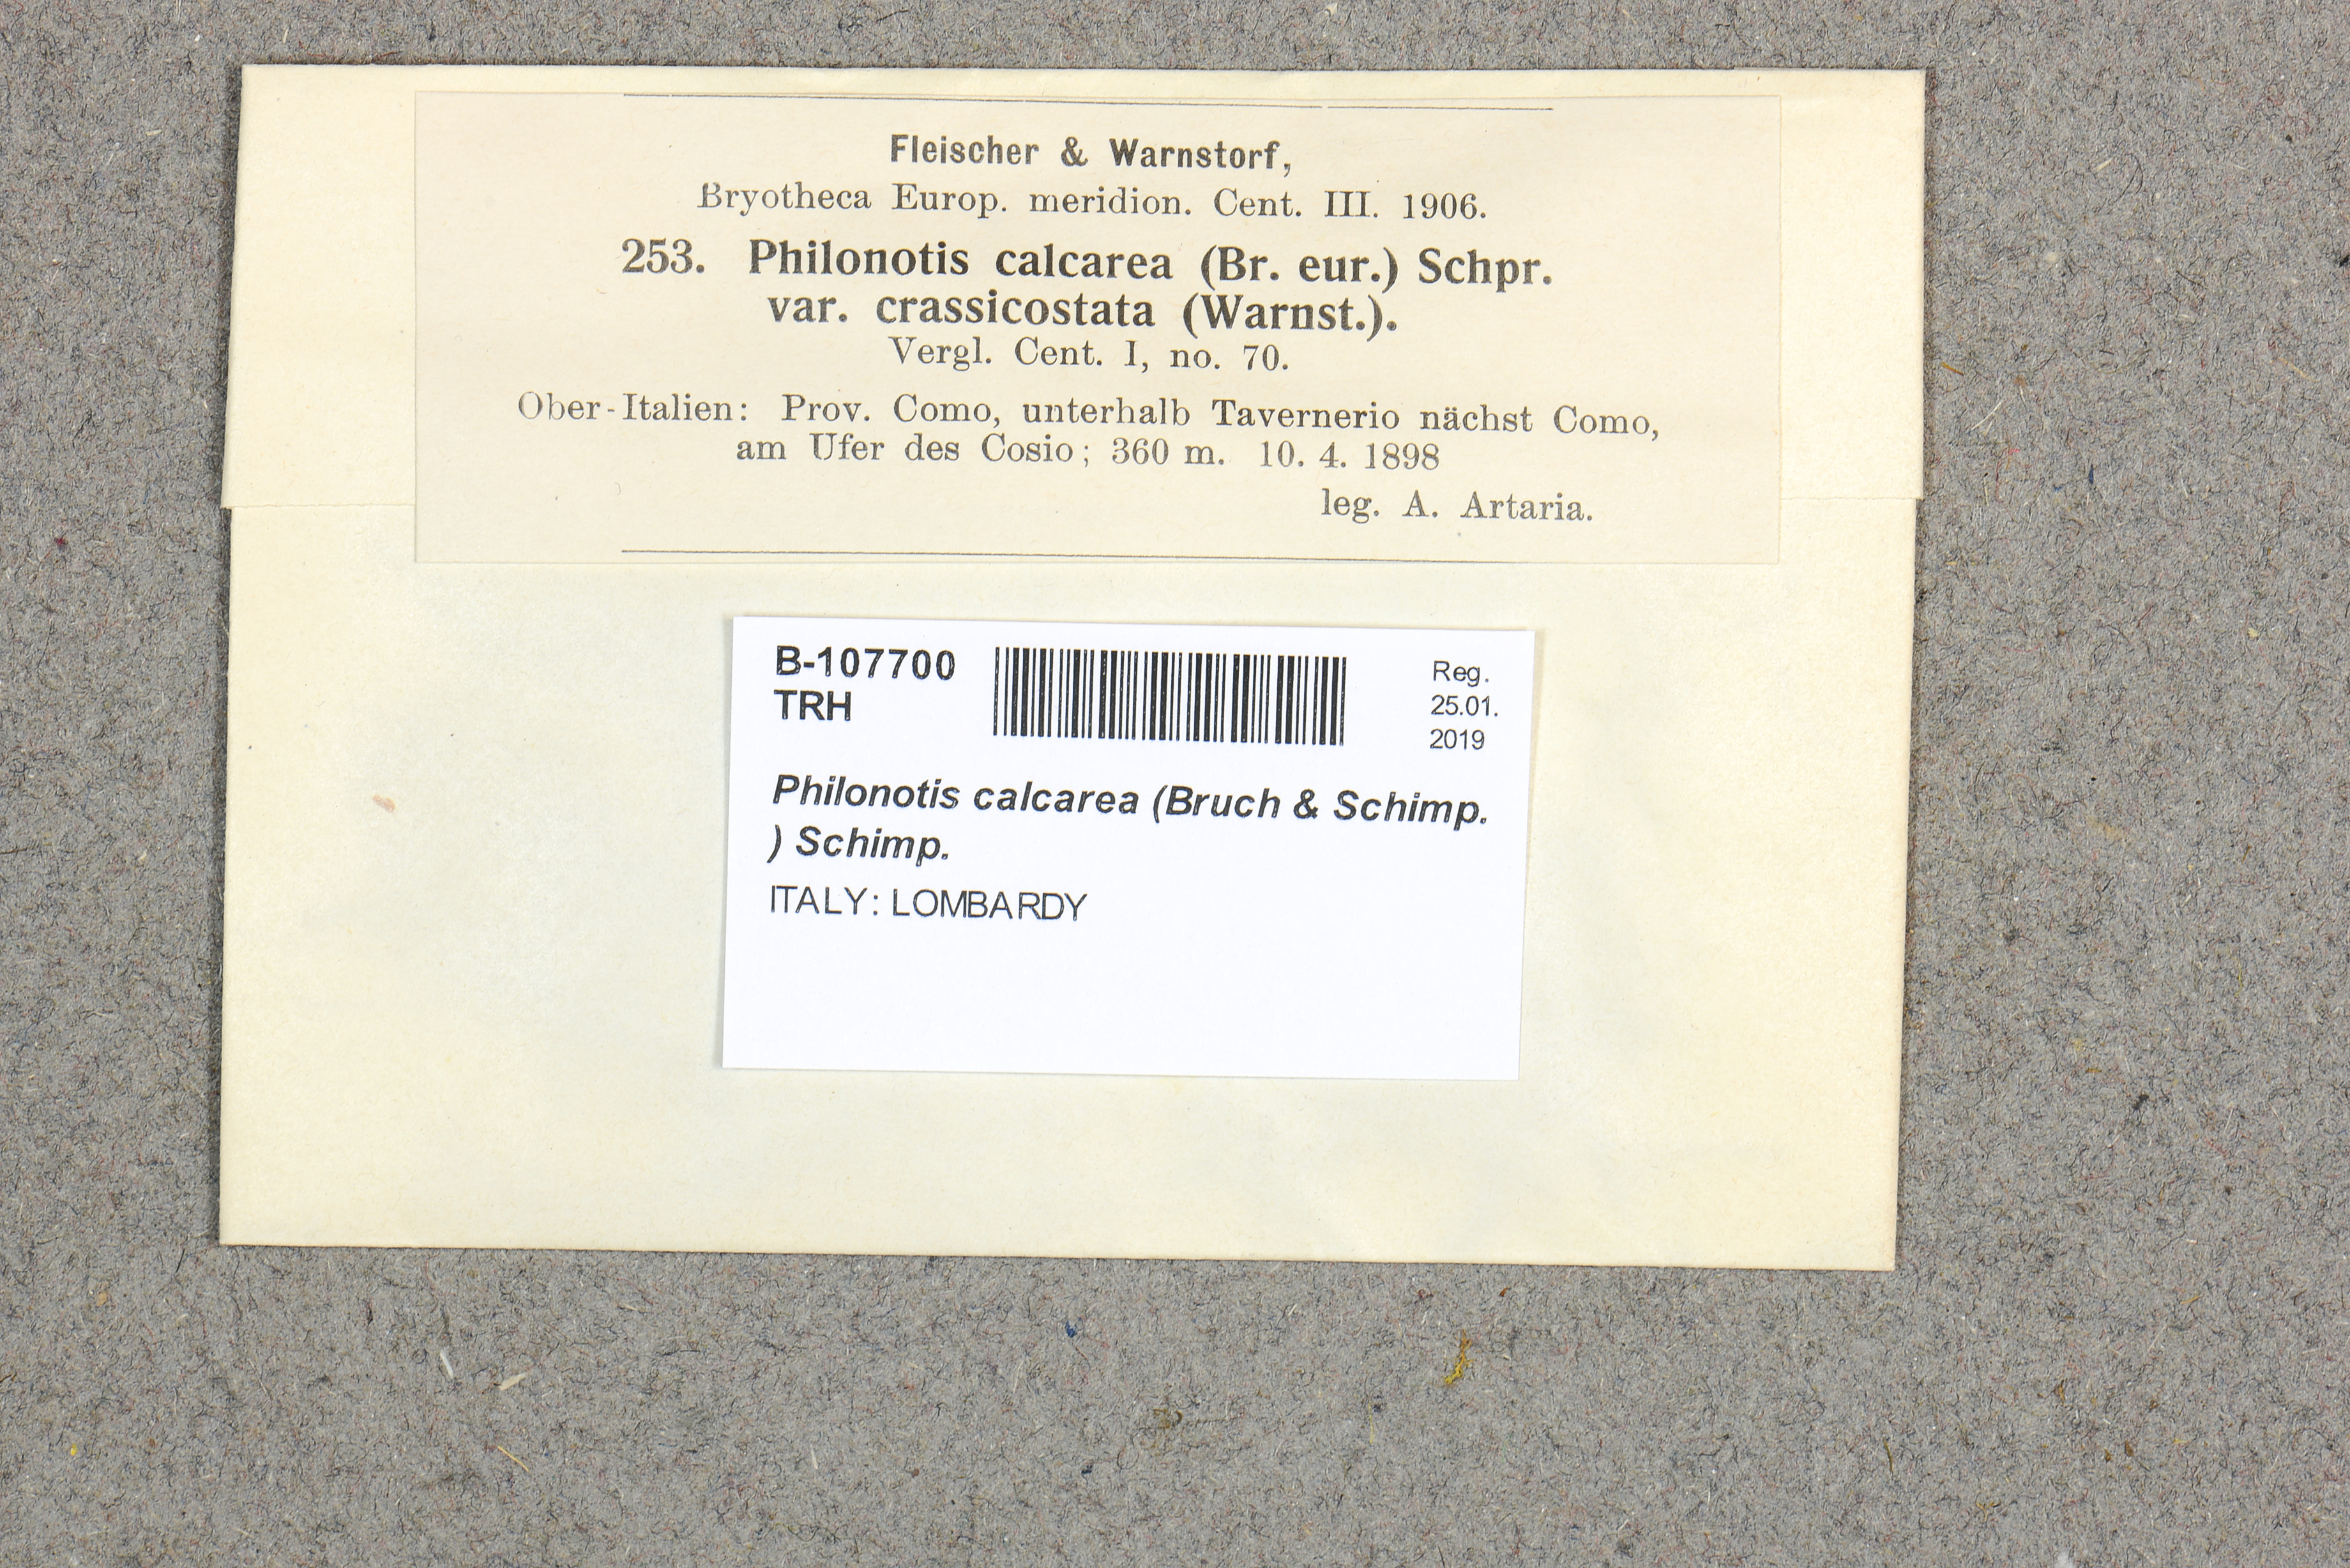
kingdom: Plantae
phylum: Bryophyta
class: Bryopsida
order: Bartramiales
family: Bartramiaceae
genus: Philonotis
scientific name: Philonotis calcarea
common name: Thick-nerved apple-moss
